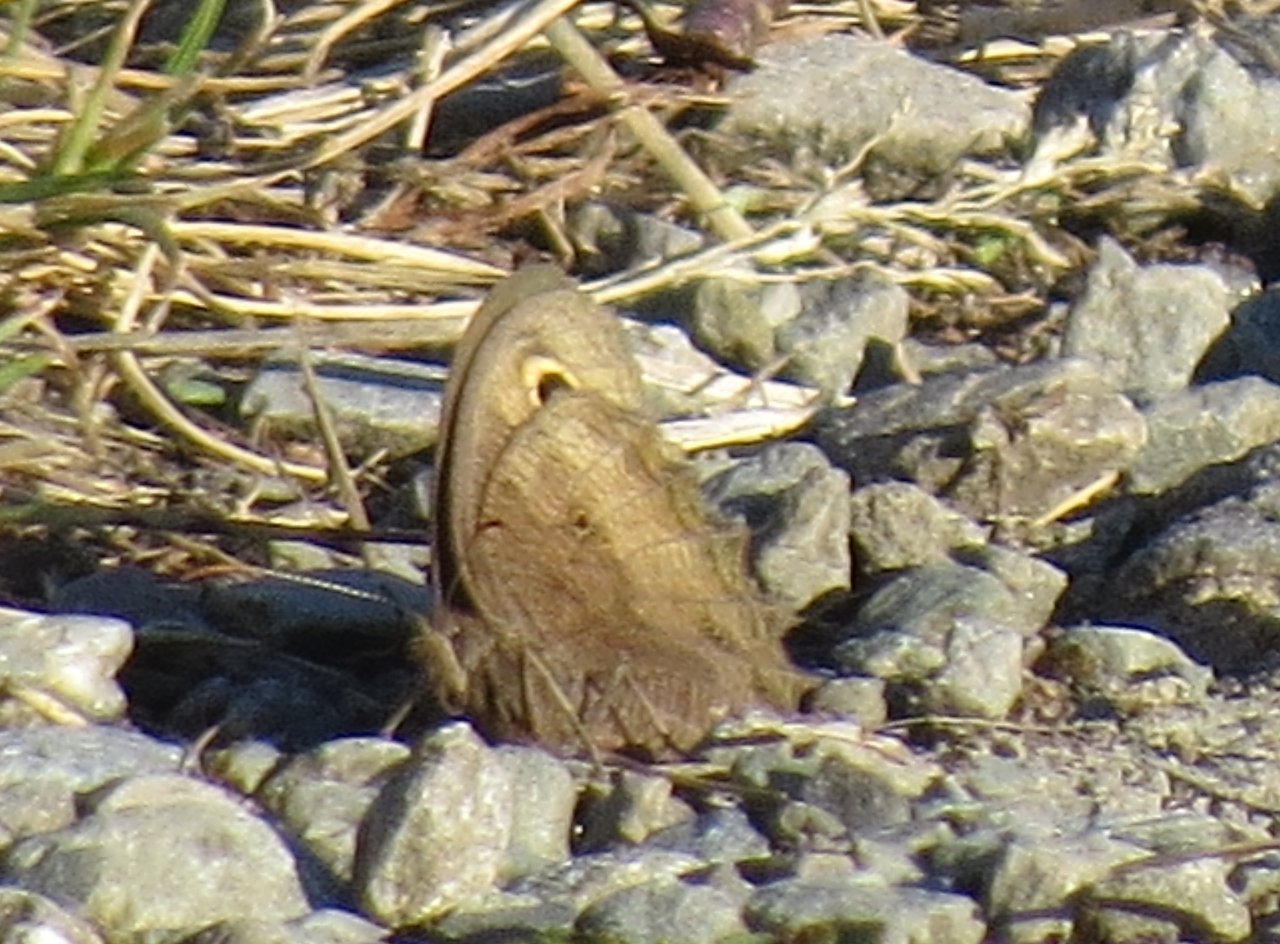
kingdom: Animalia
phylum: Arthropoda
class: Insecta
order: Lepidoptera
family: Nymphalidae
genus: Cercyonis
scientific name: Cercyonis pegala
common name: Common Wood-Nymph
